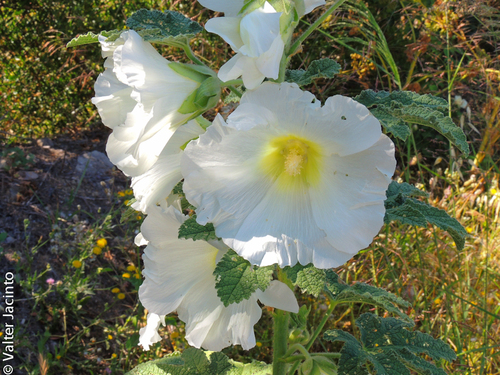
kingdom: Plantae
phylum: Tracheophyta
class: Magnoliopsida
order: Malvales
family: Malvaceae
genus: Alcea
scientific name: Alcea rosea
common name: Hollyhock
